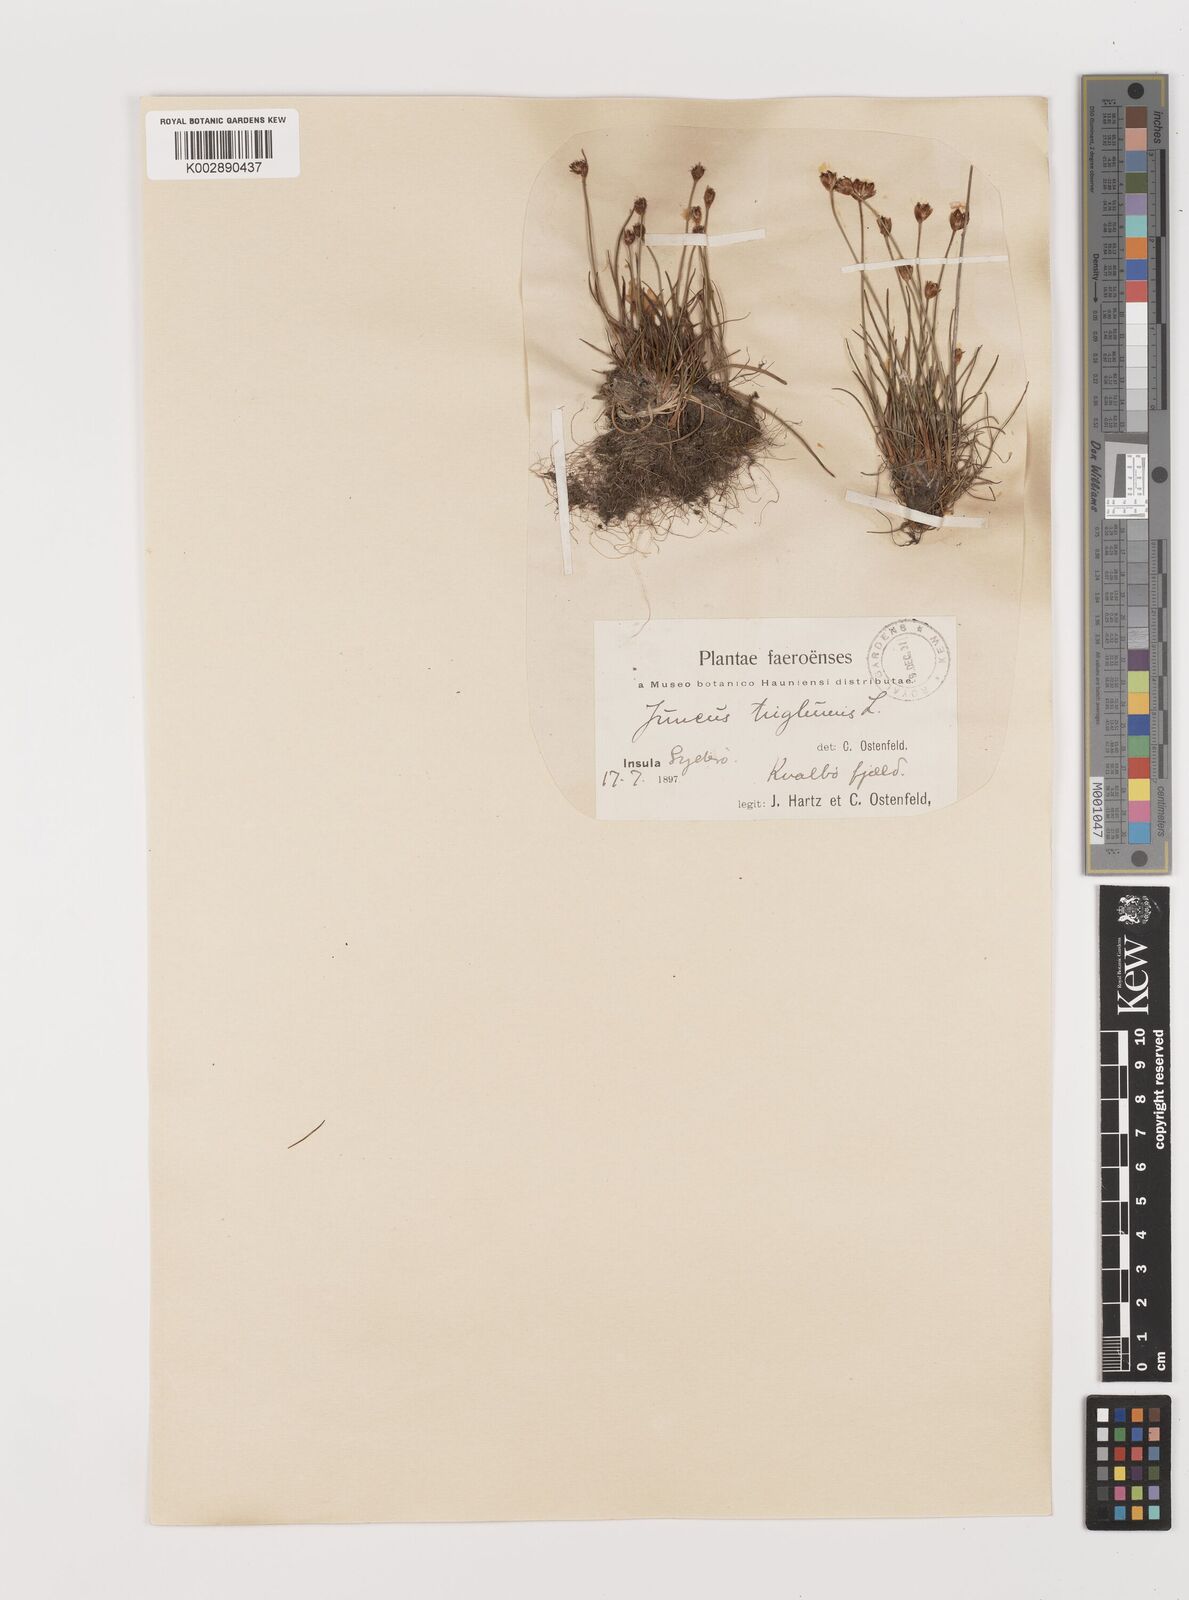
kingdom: Plantae
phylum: Tracheophyta
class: Liliopsida
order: Poales
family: Juncaceae
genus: Juncus
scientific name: Juncus triglumis
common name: Three-flowered rush
